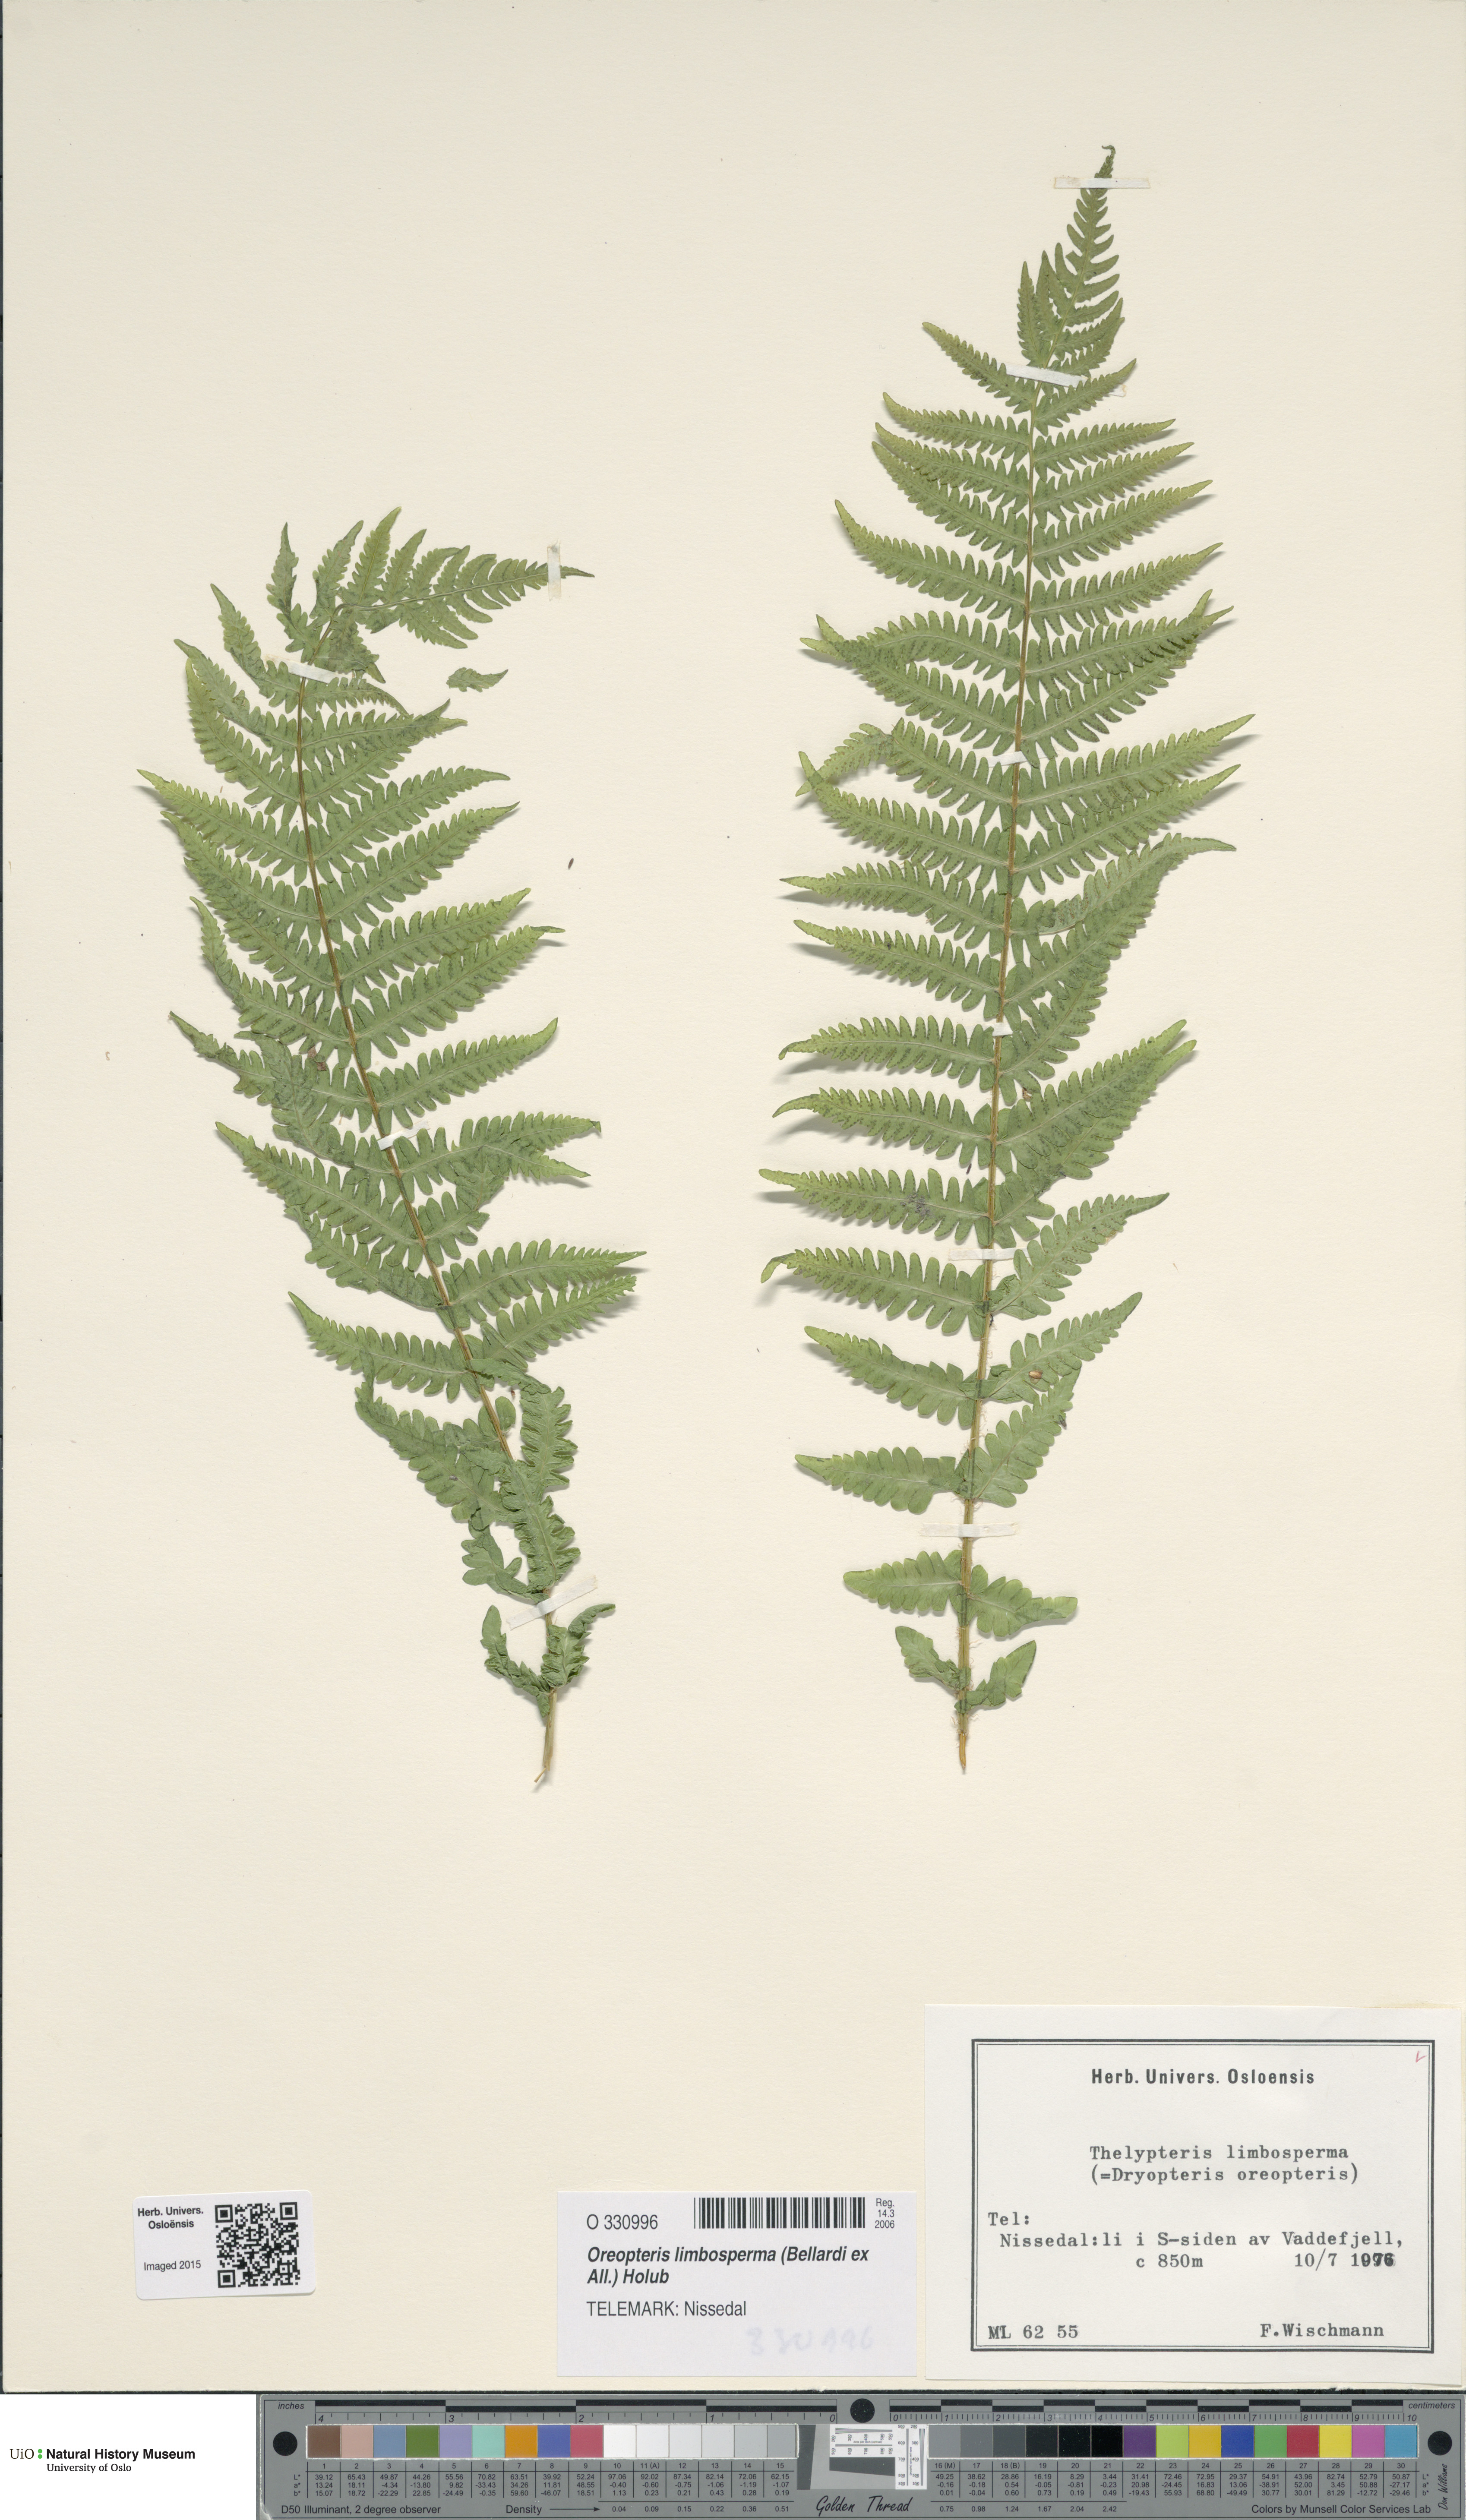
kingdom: Plantae
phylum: Tracheophyta
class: Polypodiopsida
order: Polypodiales
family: Thelypteridaceae
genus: Oreopteris
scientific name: Oreopteris limbosperma
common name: Lemon-scented fern
